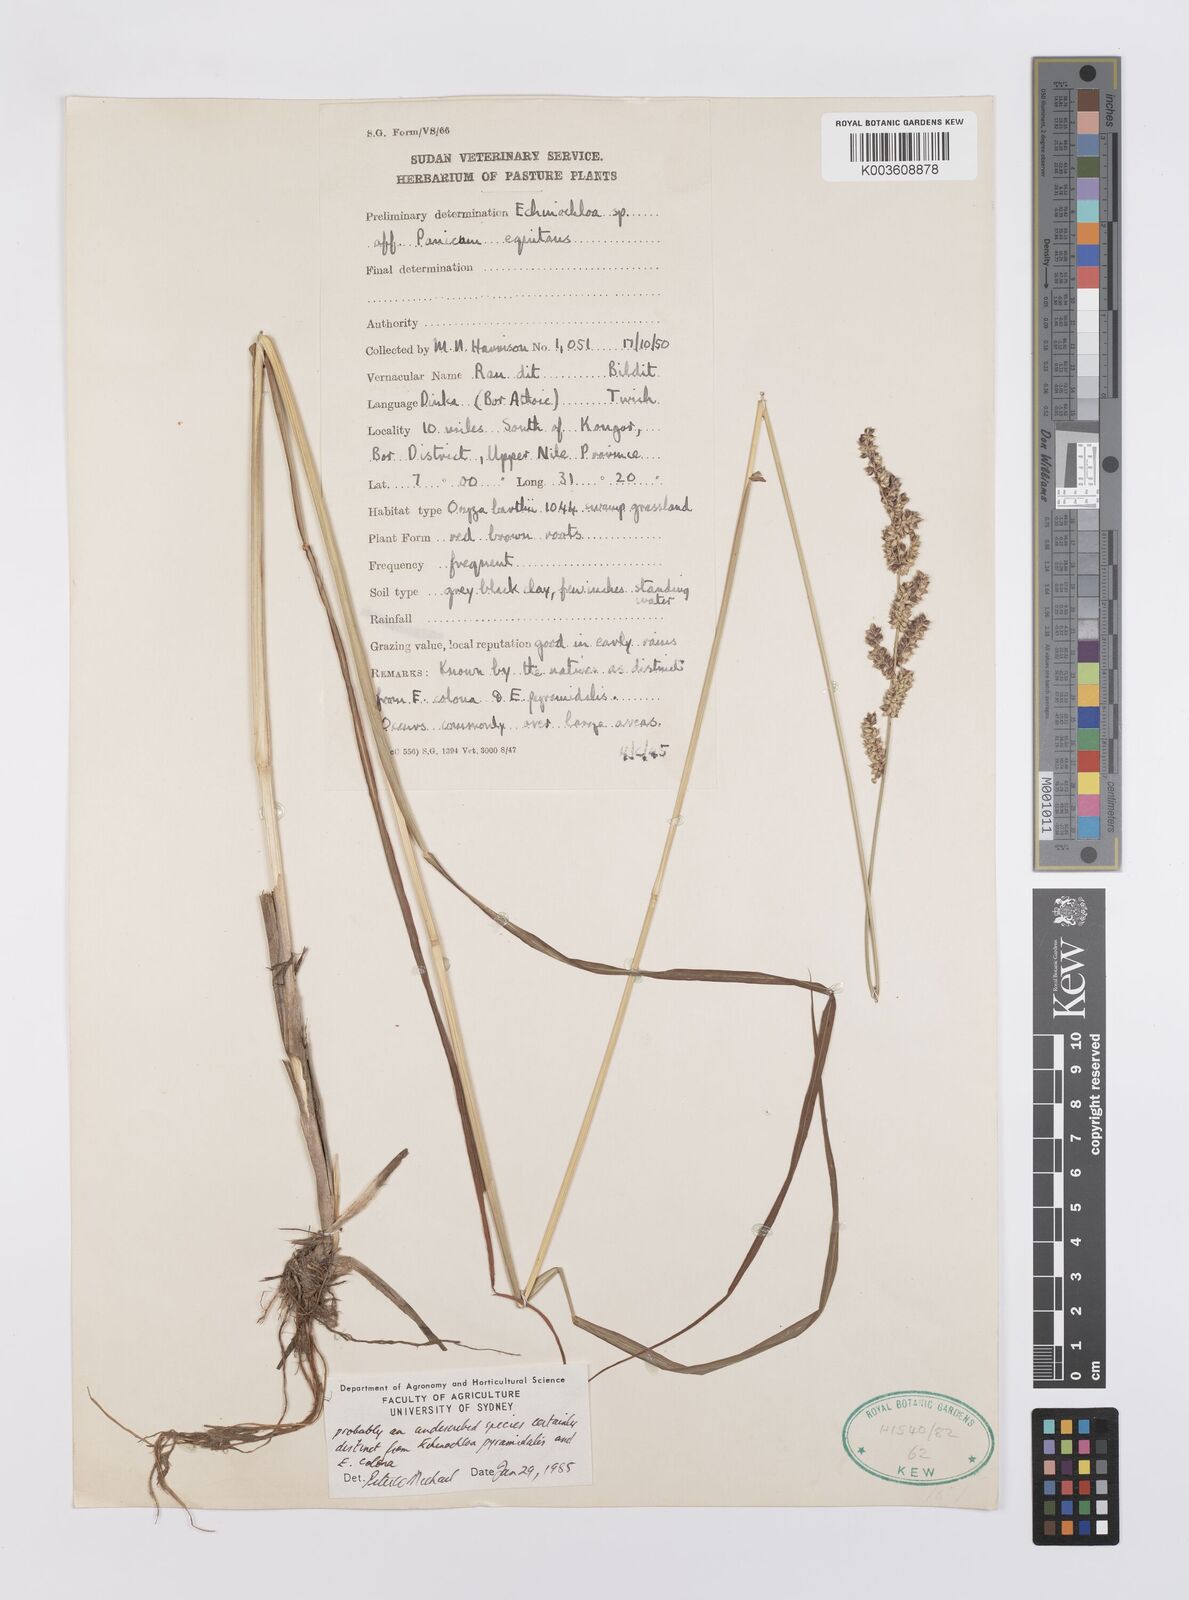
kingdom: Plantae
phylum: Tracheophyta
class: Liliopsida
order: Poales
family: Poaceae
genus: Echinochloa
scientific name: Echinochloa colonum
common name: Jungle rice
